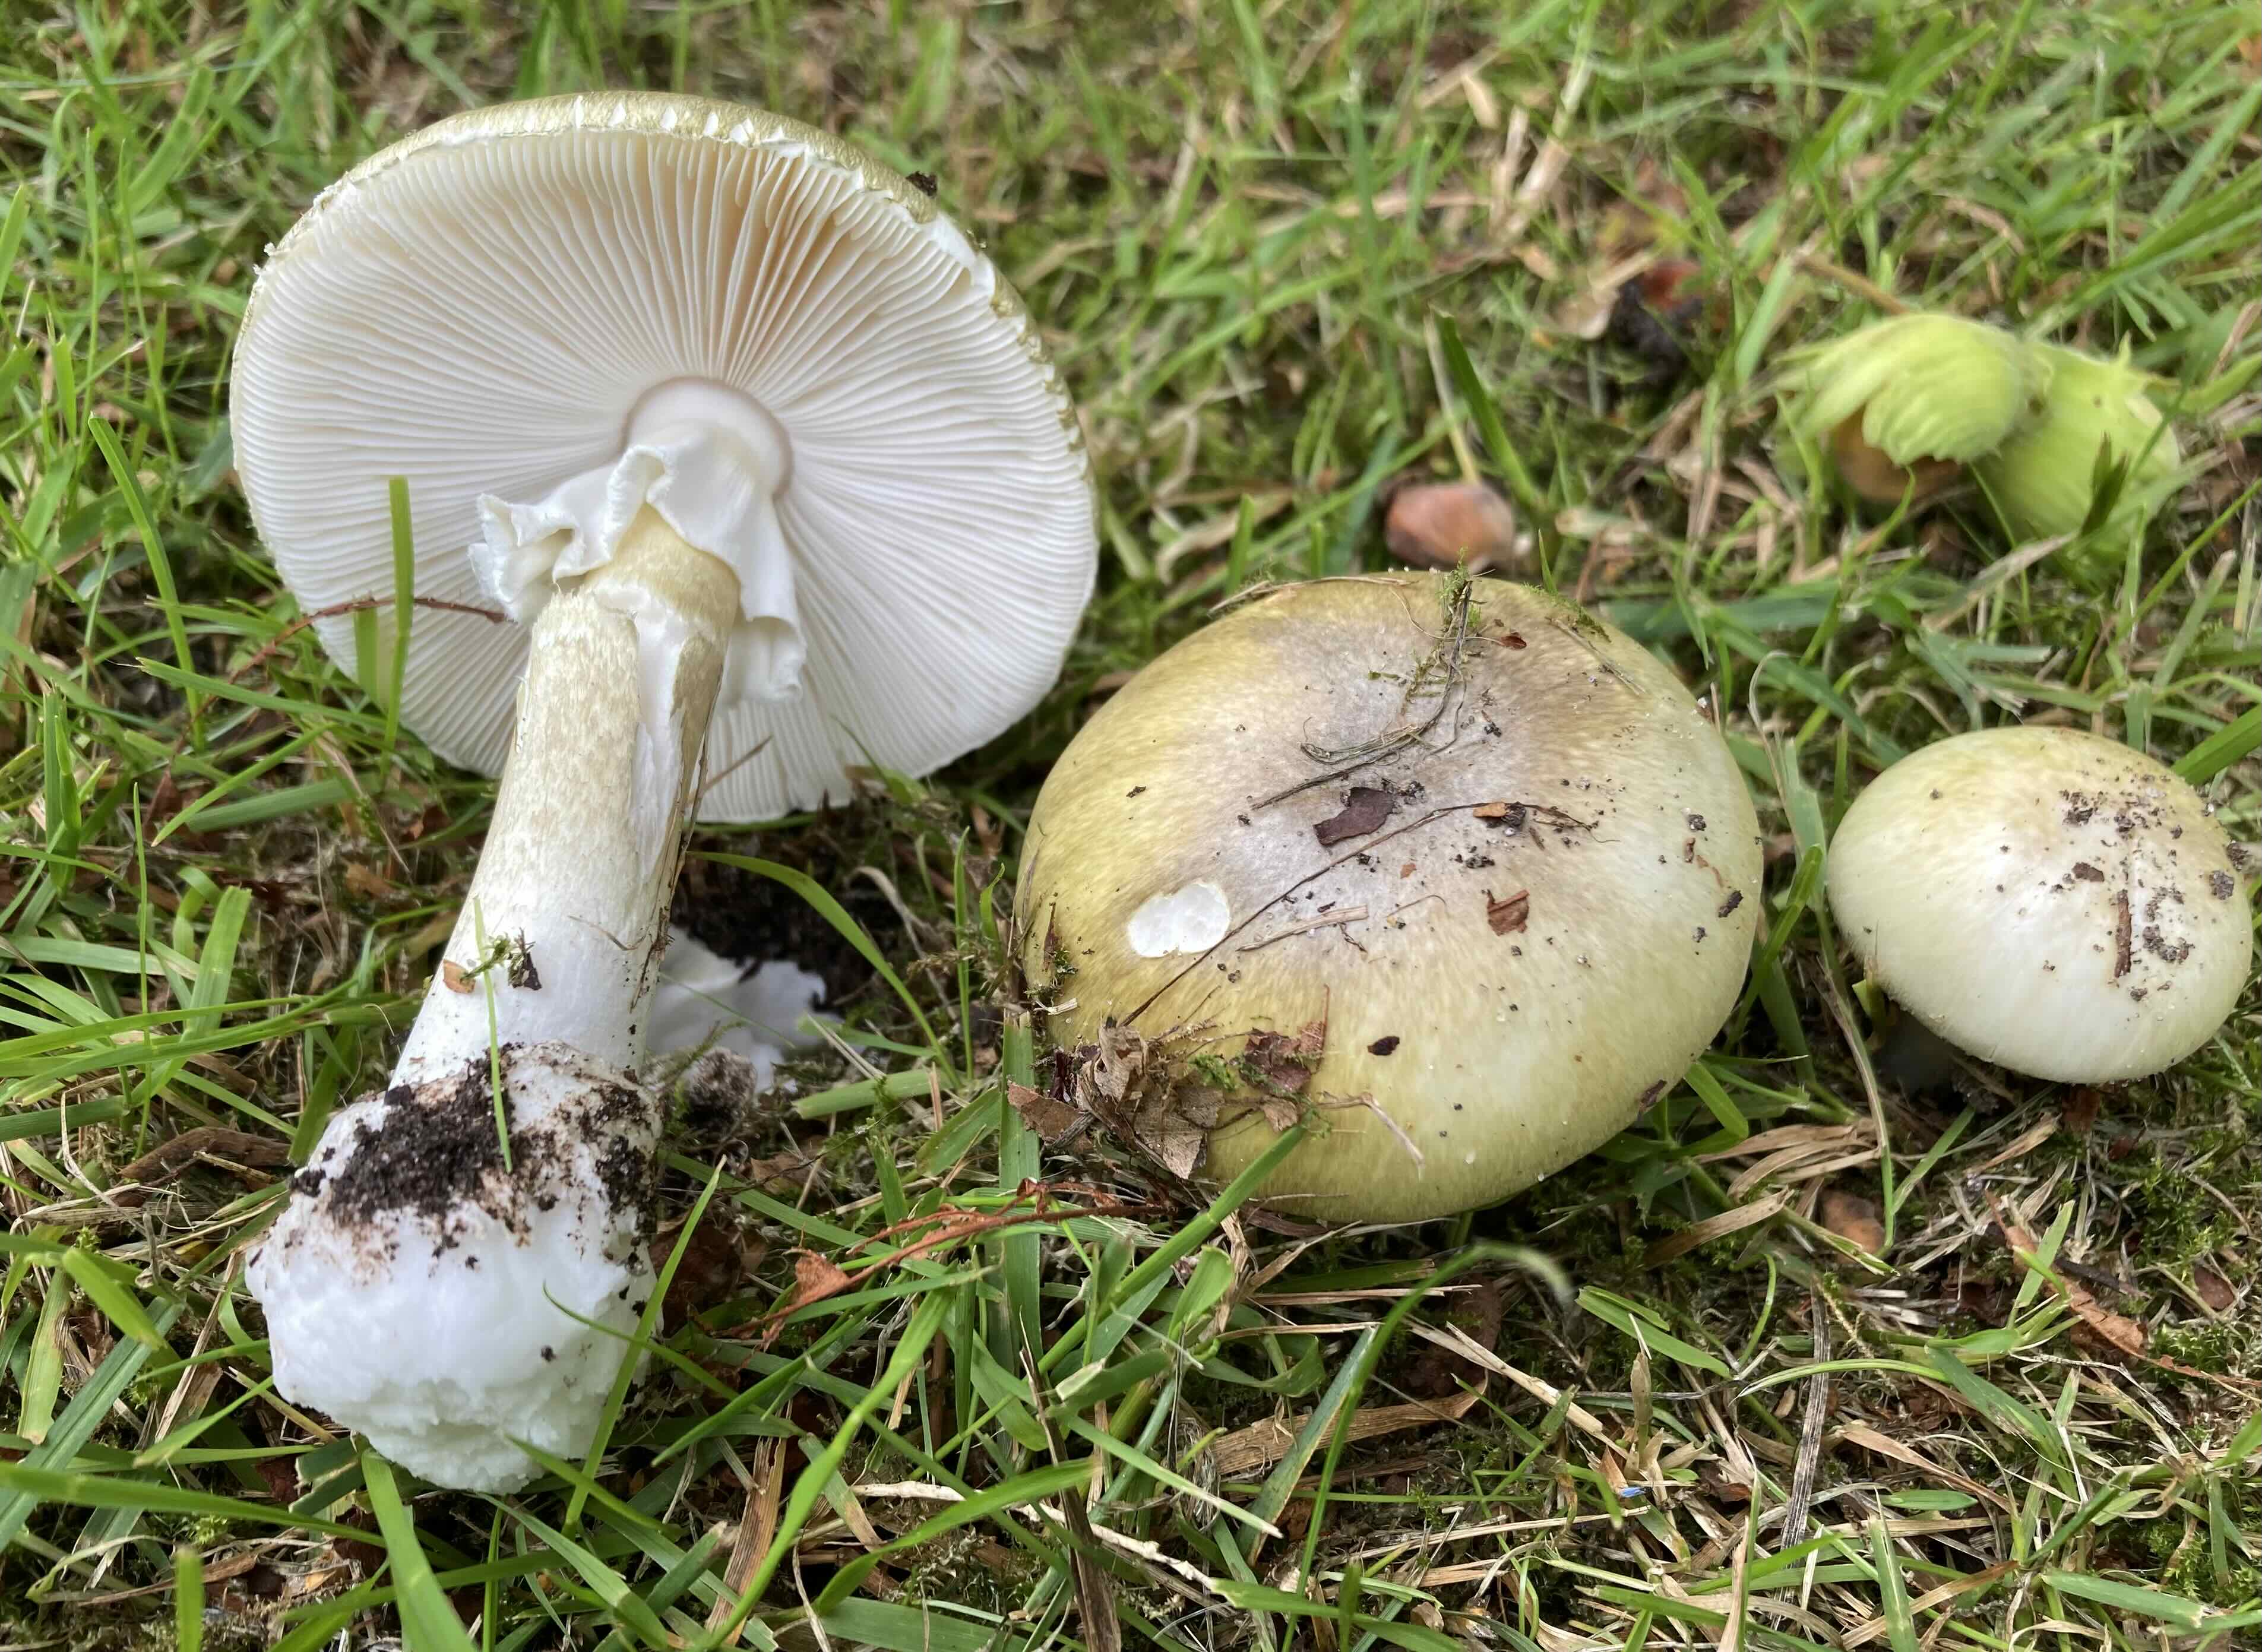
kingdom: Fungi
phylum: Basidiomycota
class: Agaricomycetes
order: Agaricales
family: Amanitaceae
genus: Amanita
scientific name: Amanita phalloides
